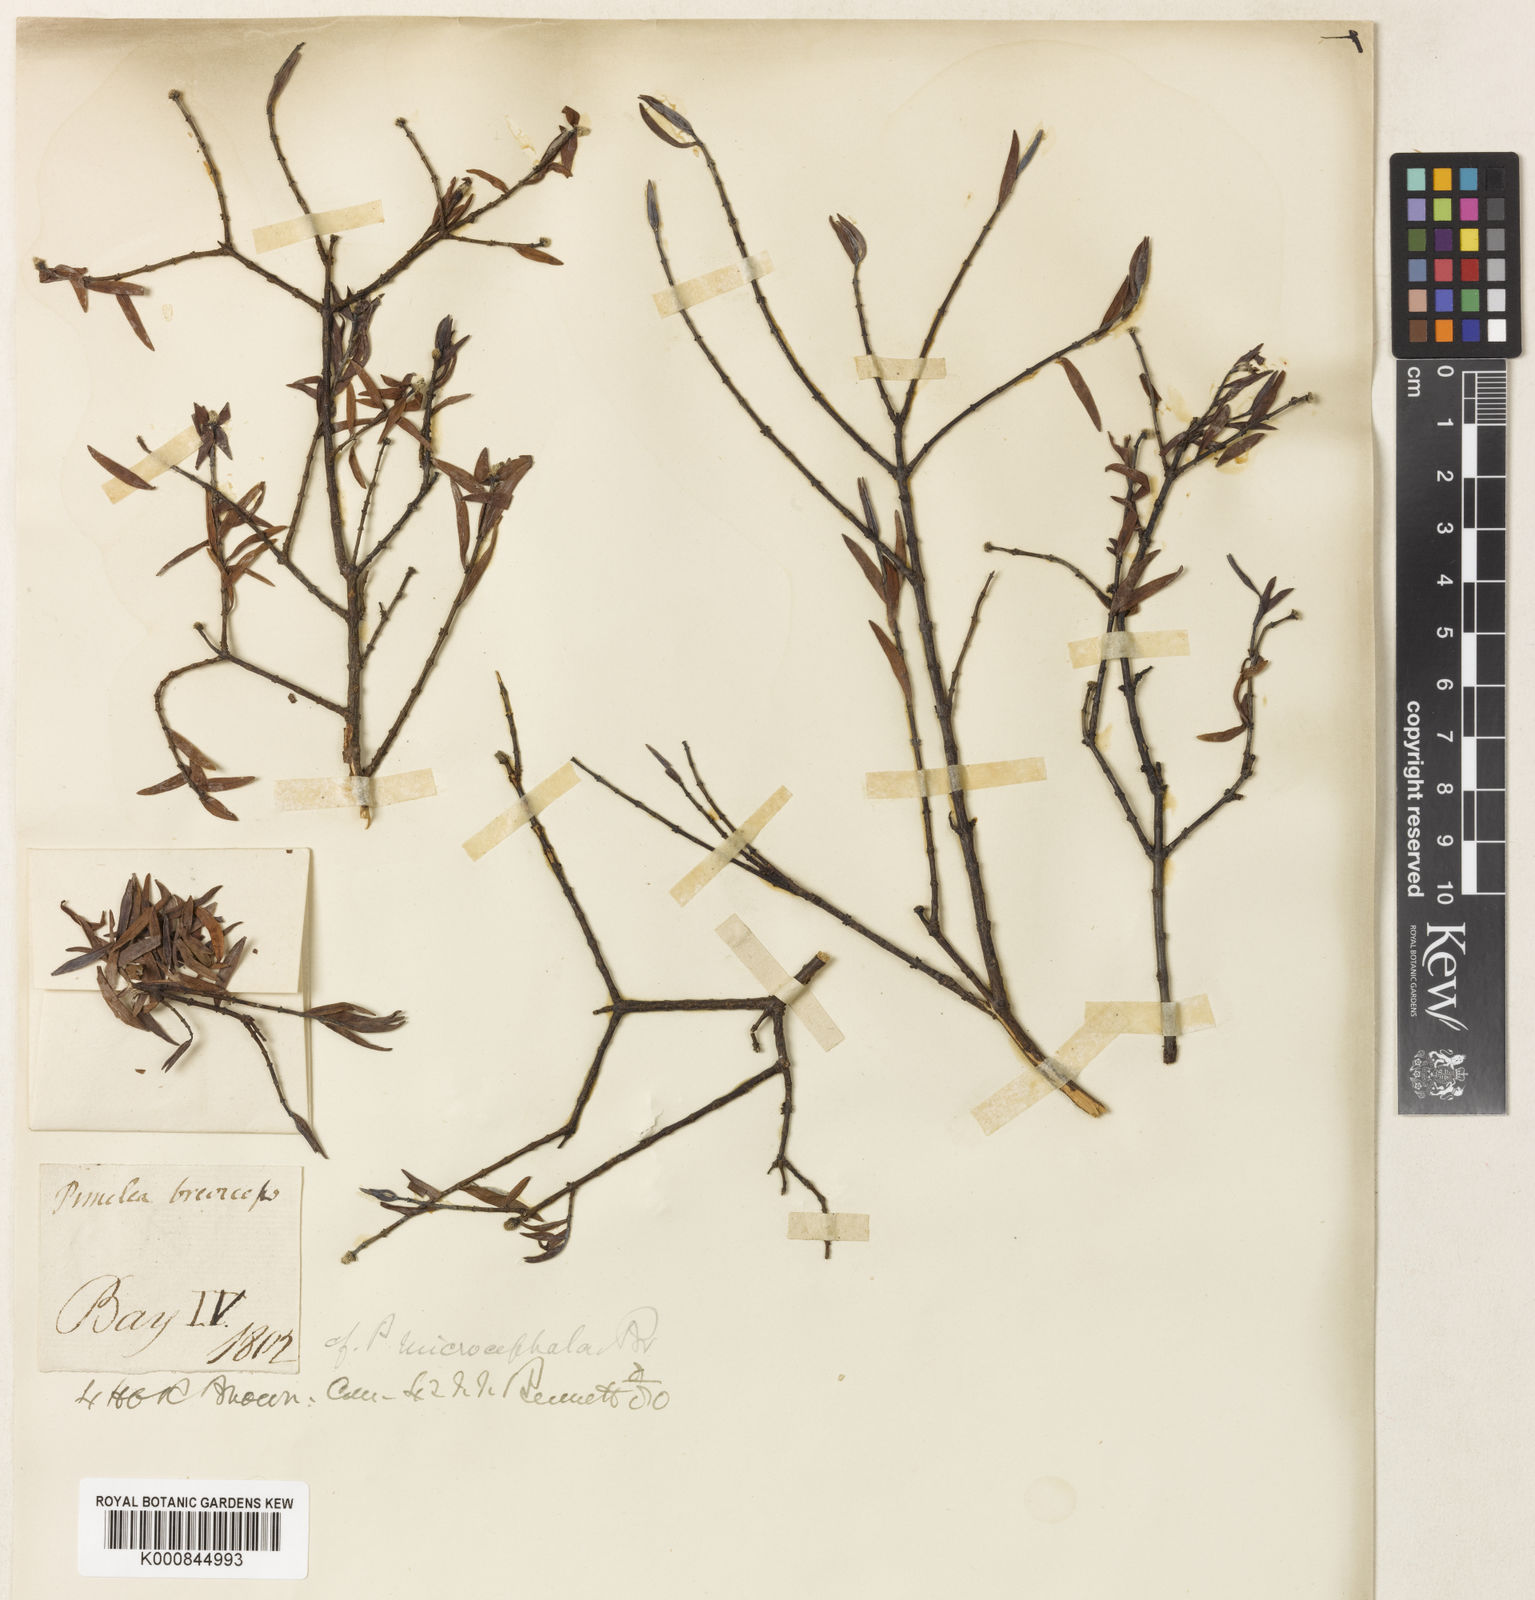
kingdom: Plantae
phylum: Tracheophyta
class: Magnoliopsida
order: Malvales
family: Thymelaeaceae
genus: Pimelea
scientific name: Pimelea microcephala
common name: Mallee riceflower
